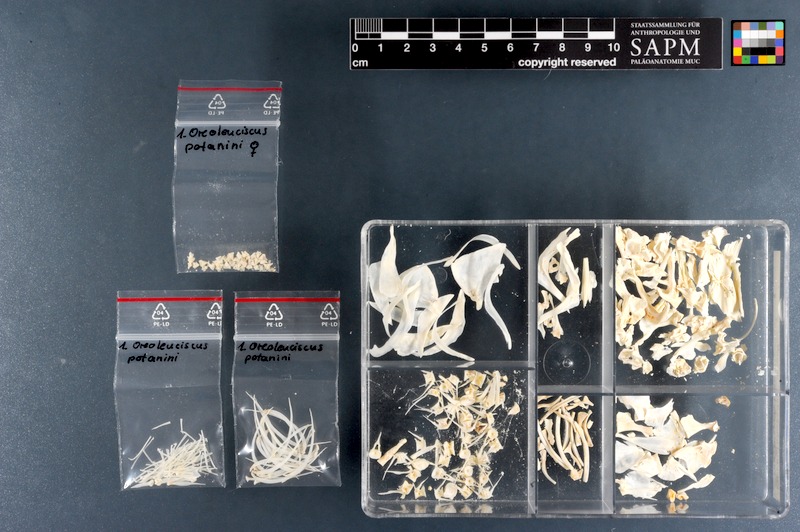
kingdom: Animalia
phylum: Chordata
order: Cypriniformes
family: Cyprinidae
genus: Oreoleuciscus
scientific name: Oreoleuciscus potanini
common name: Altai osman
